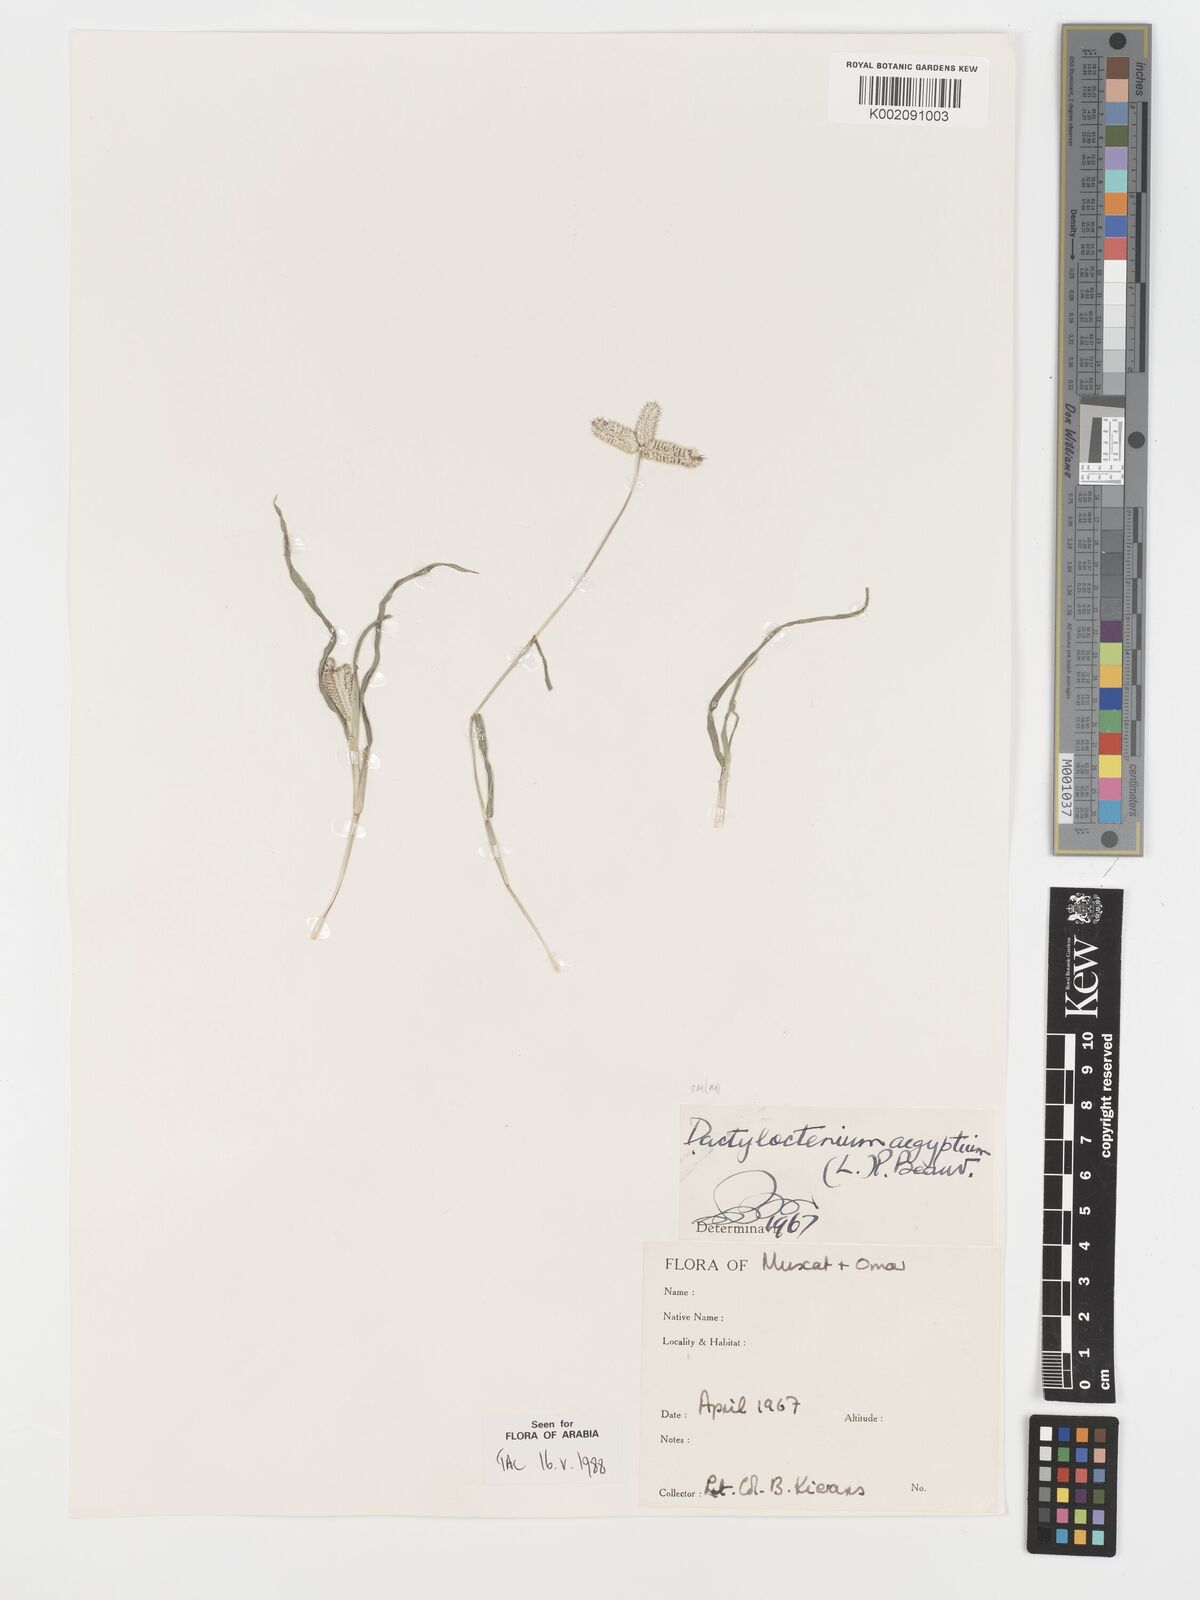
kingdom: Plantae
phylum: Tracheophyta
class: Liliopsida
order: Poales
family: Poaceae
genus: Dactyloctenium
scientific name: Dactyloctenium aegyptium
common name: Egyptian grass
